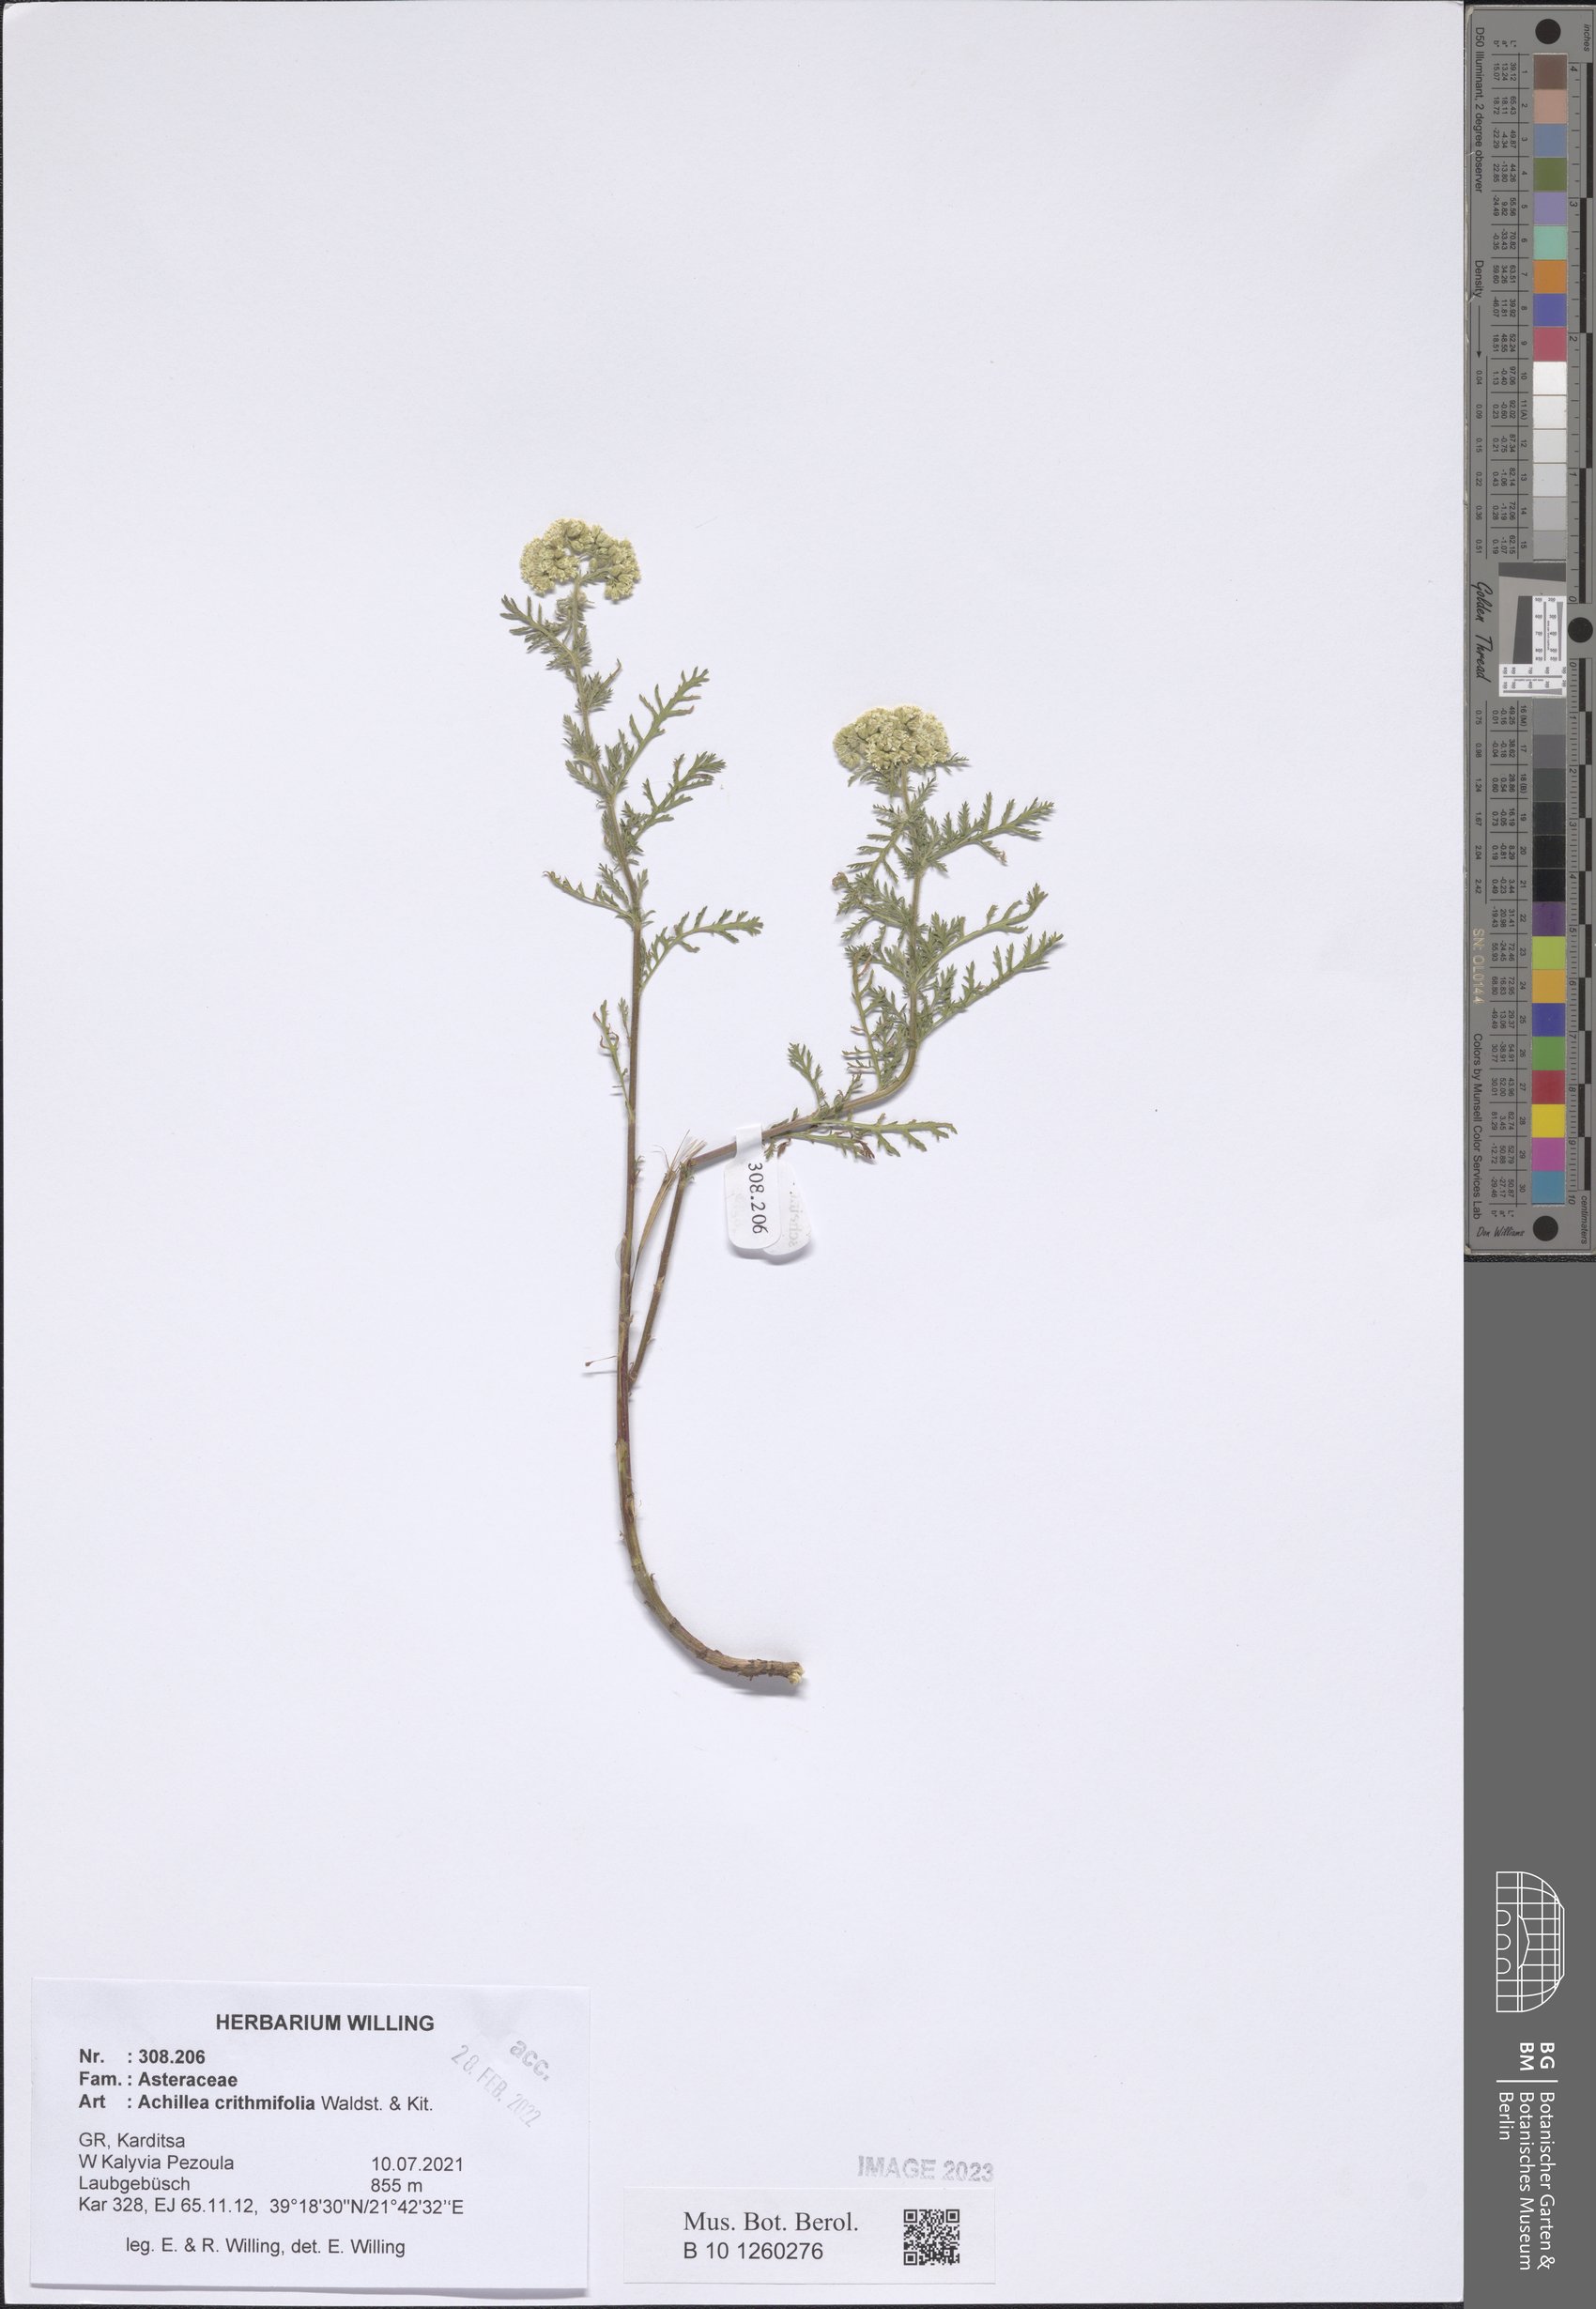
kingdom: Plantae
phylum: Tracheophyta
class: Magnoliopsida
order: Asterales
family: Asteraceae
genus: Achillea
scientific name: Achillea crithmifolia
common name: Yarrow
